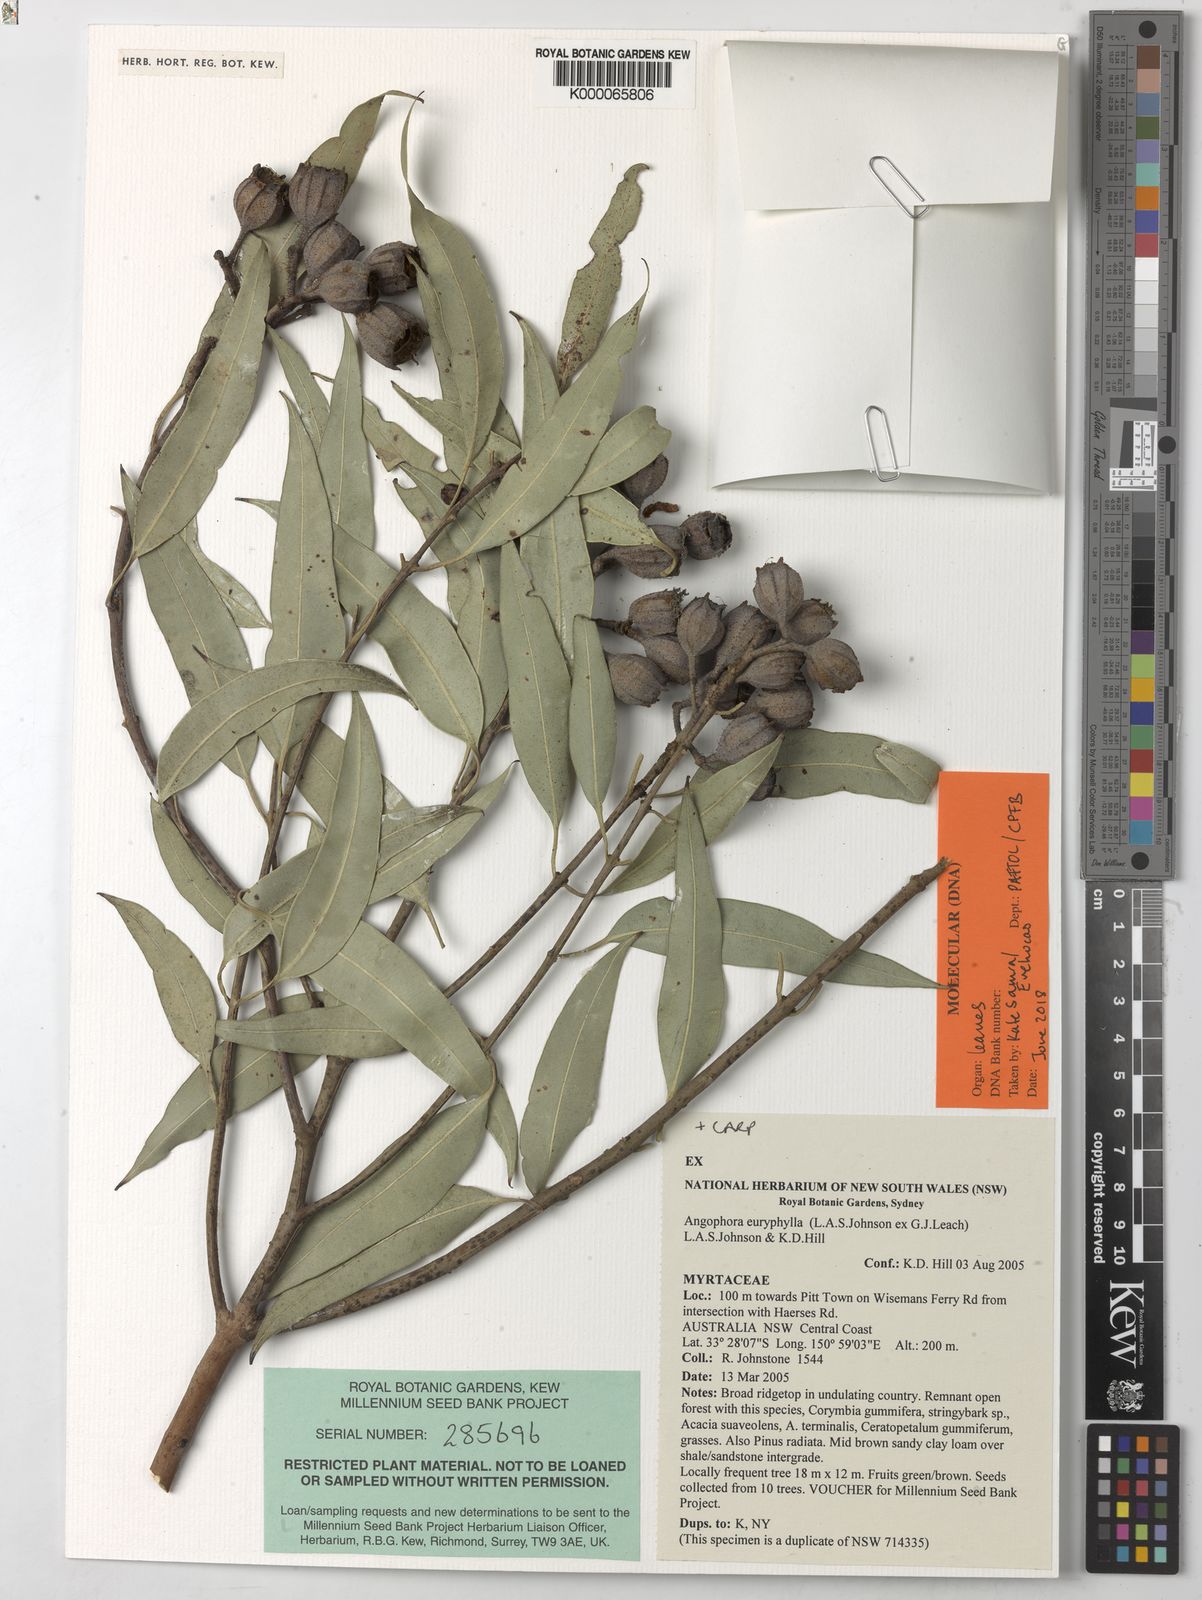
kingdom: Plantae
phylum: Tracheophyta
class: Magnoliopsida
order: Myrtales
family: Myrtaceae
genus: Angophora
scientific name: Angophora euryphylla
